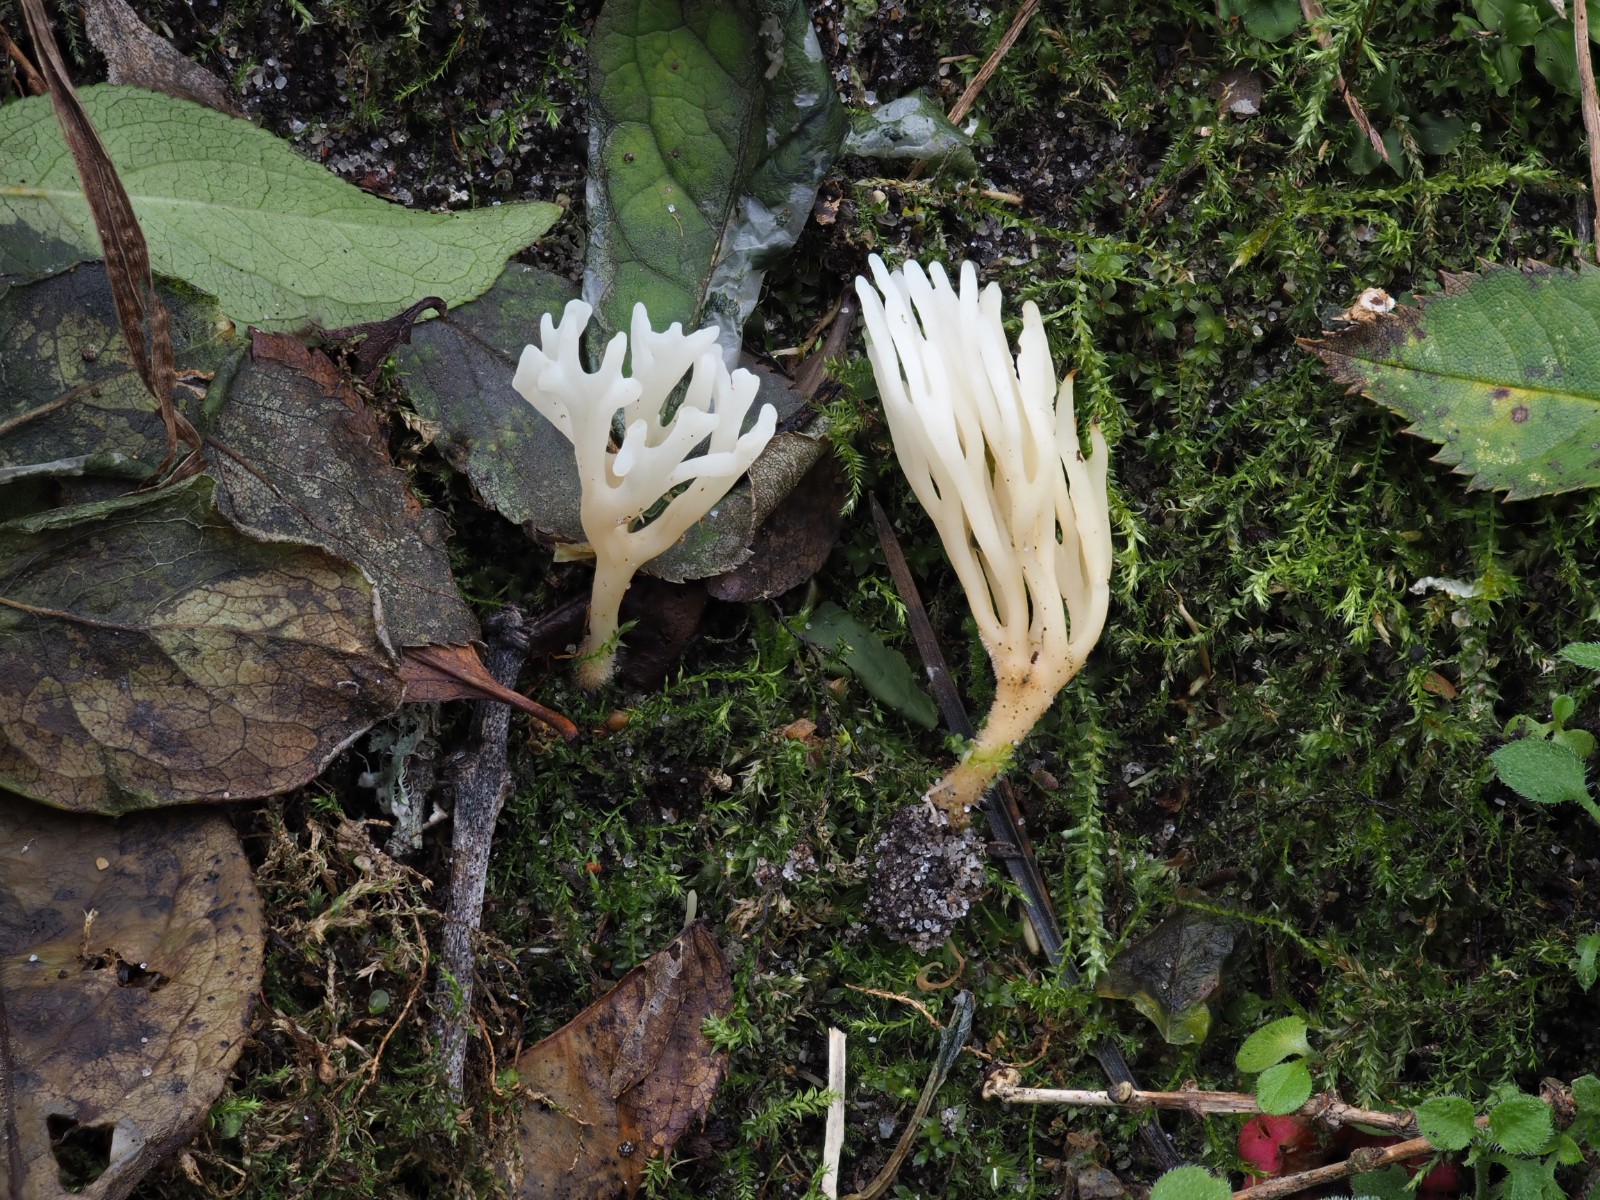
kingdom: Fungi
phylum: Basidiomycota
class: Agaricomycetes
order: Agaricales
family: Clavariaceae
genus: Ramariopsis
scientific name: Ramariopsis
